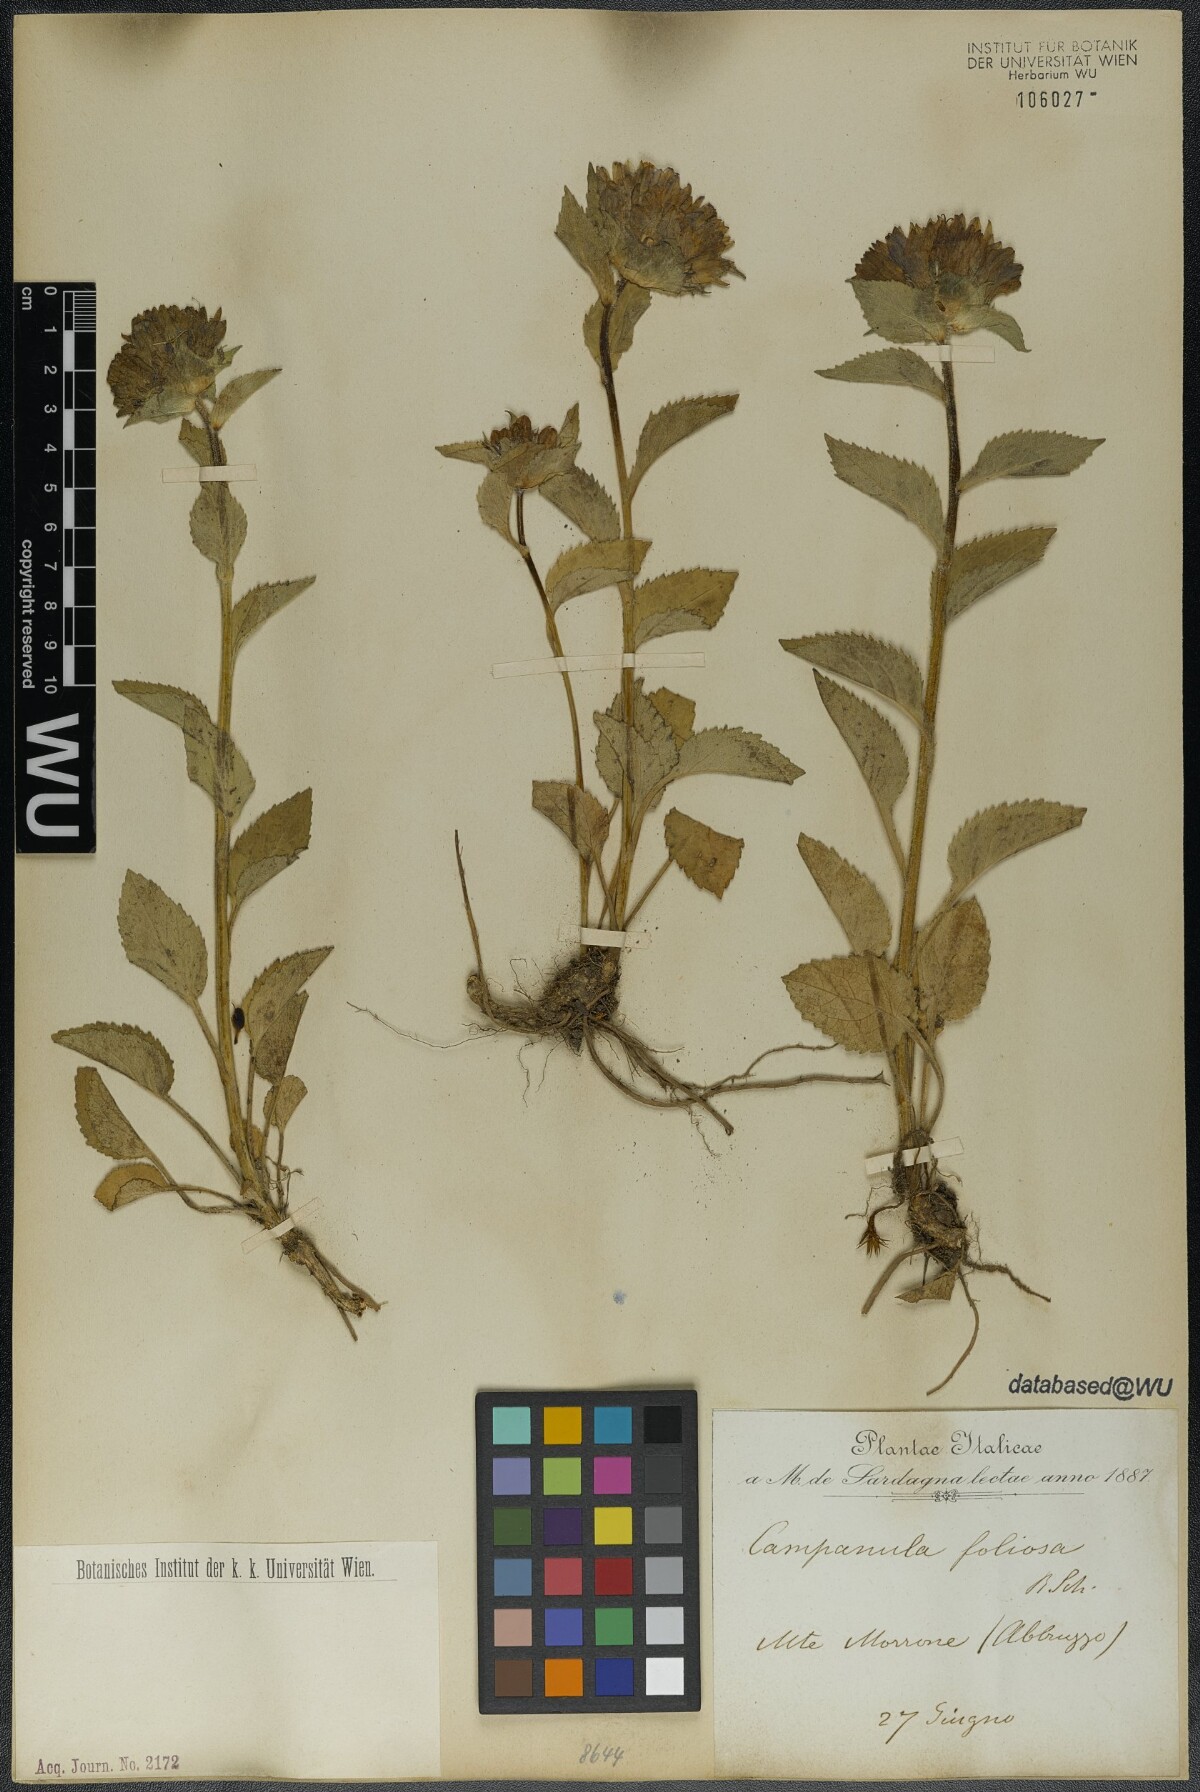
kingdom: Plantae
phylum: Tracheophyta
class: Magnoliopsida
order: Asterales
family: Campanulaceae
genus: Campanula
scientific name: Campanula foliosa
